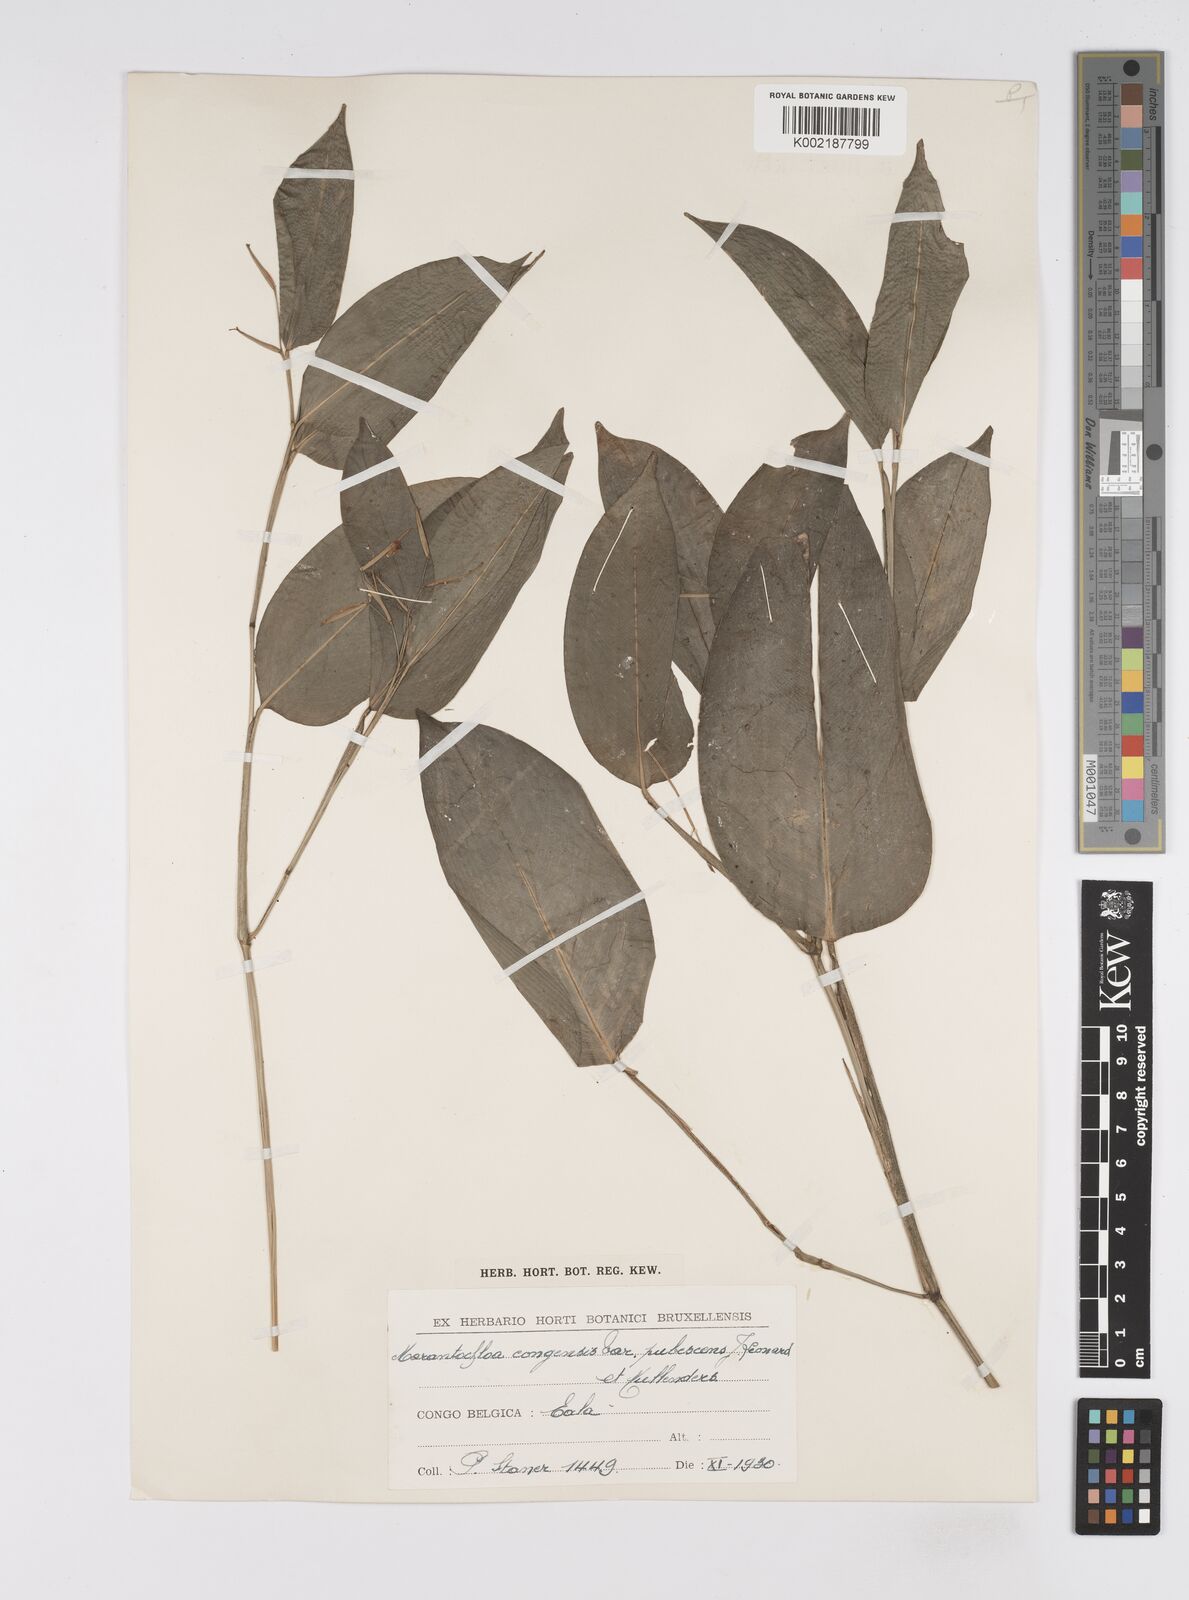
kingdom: Plantae
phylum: Tracheophyta
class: Liliopsida
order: Zingiberales
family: Marantaceae
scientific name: Marantaceae
